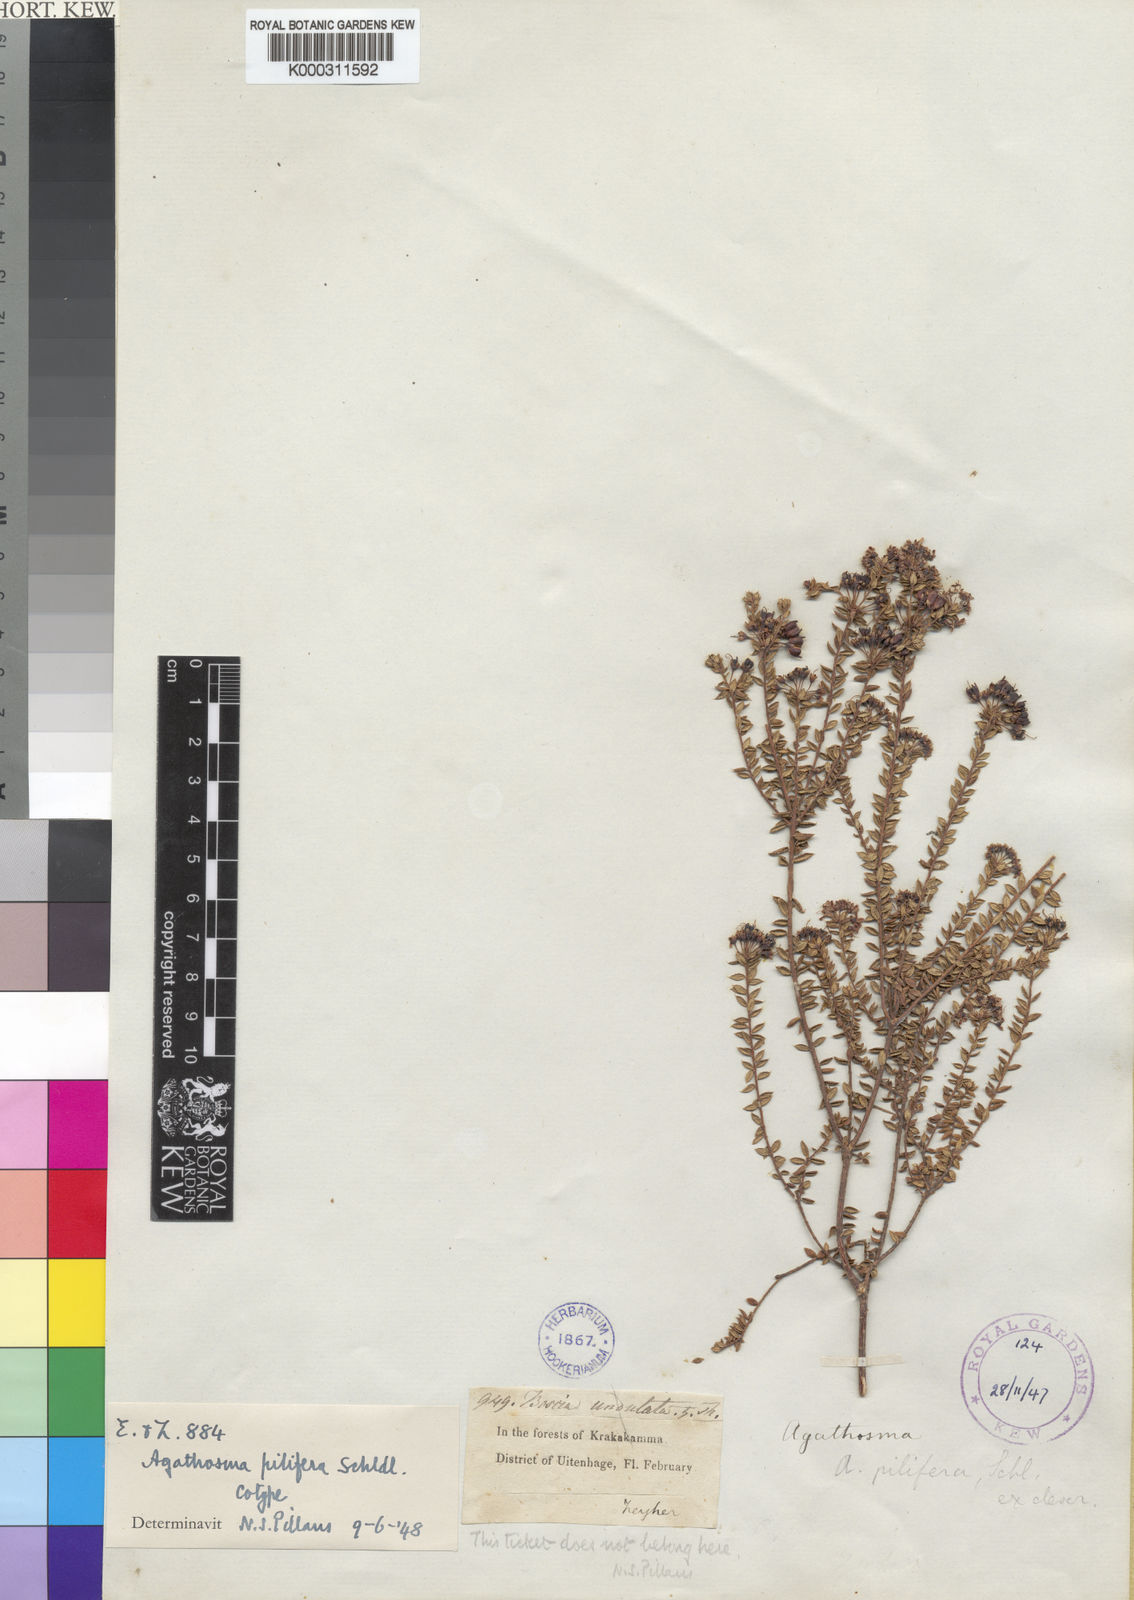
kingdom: Plantae
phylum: Tracheophyta
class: Magnoliopsida
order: Sapindales
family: Rutaceae
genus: Agathosma
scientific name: Agathosma pilifera
